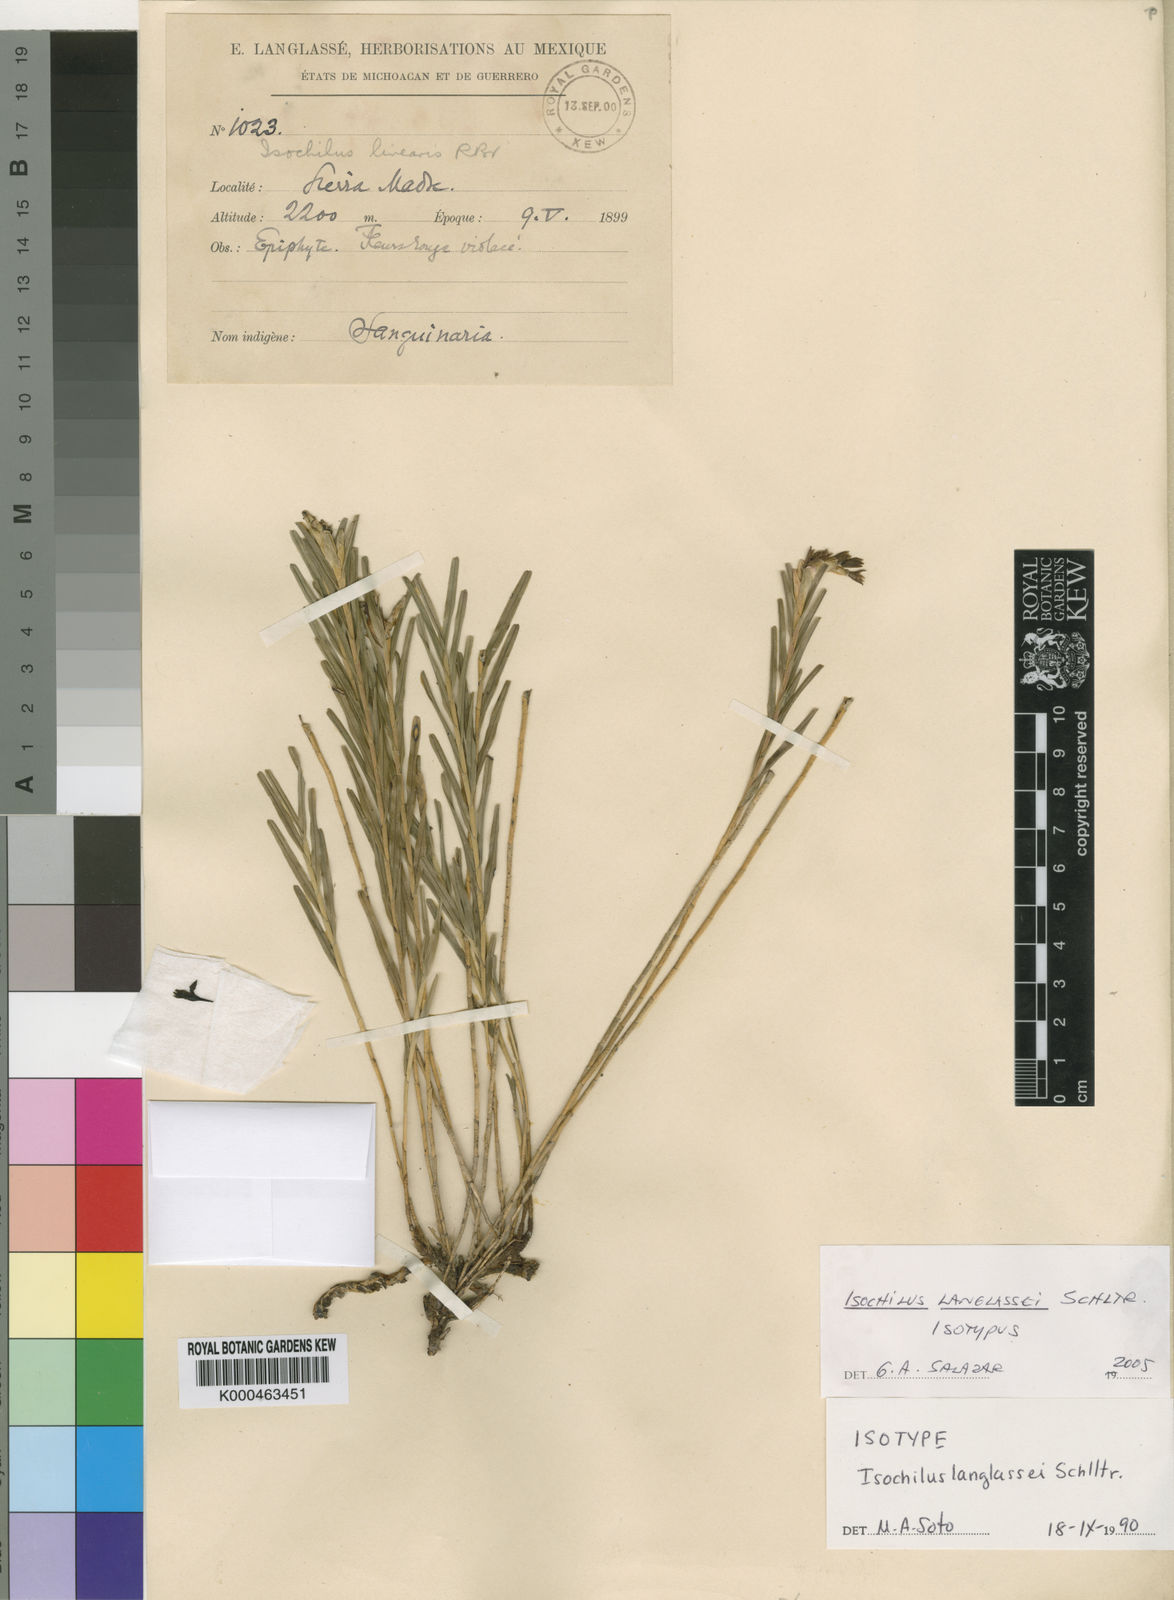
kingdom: Plantae
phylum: Tracheophyta
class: Liliopsida
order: Asparagales
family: Orchidaceae
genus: Isochilus
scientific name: Isochilus langlassei
